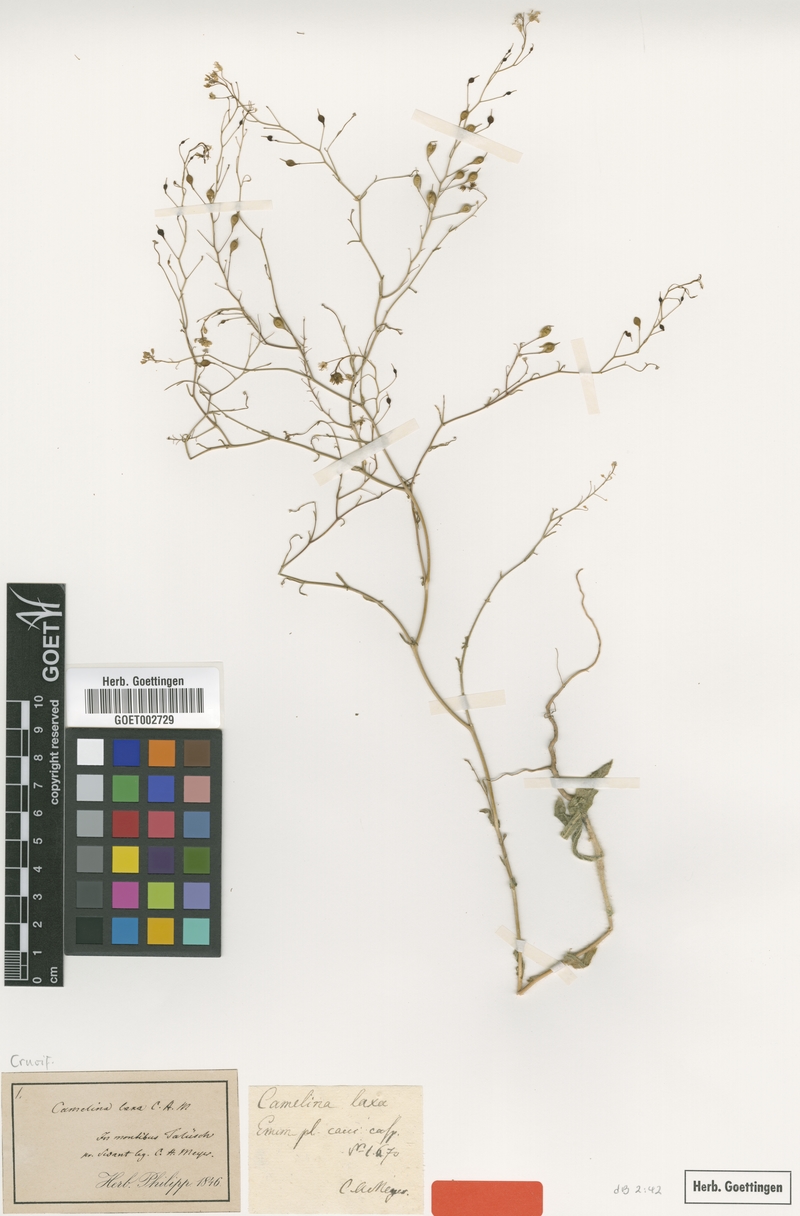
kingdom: Plantae
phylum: Tracheophyta
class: Magnoliopsida
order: Brassicales
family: Brassicaceae
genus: Camelina
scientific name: Camelina laxa
